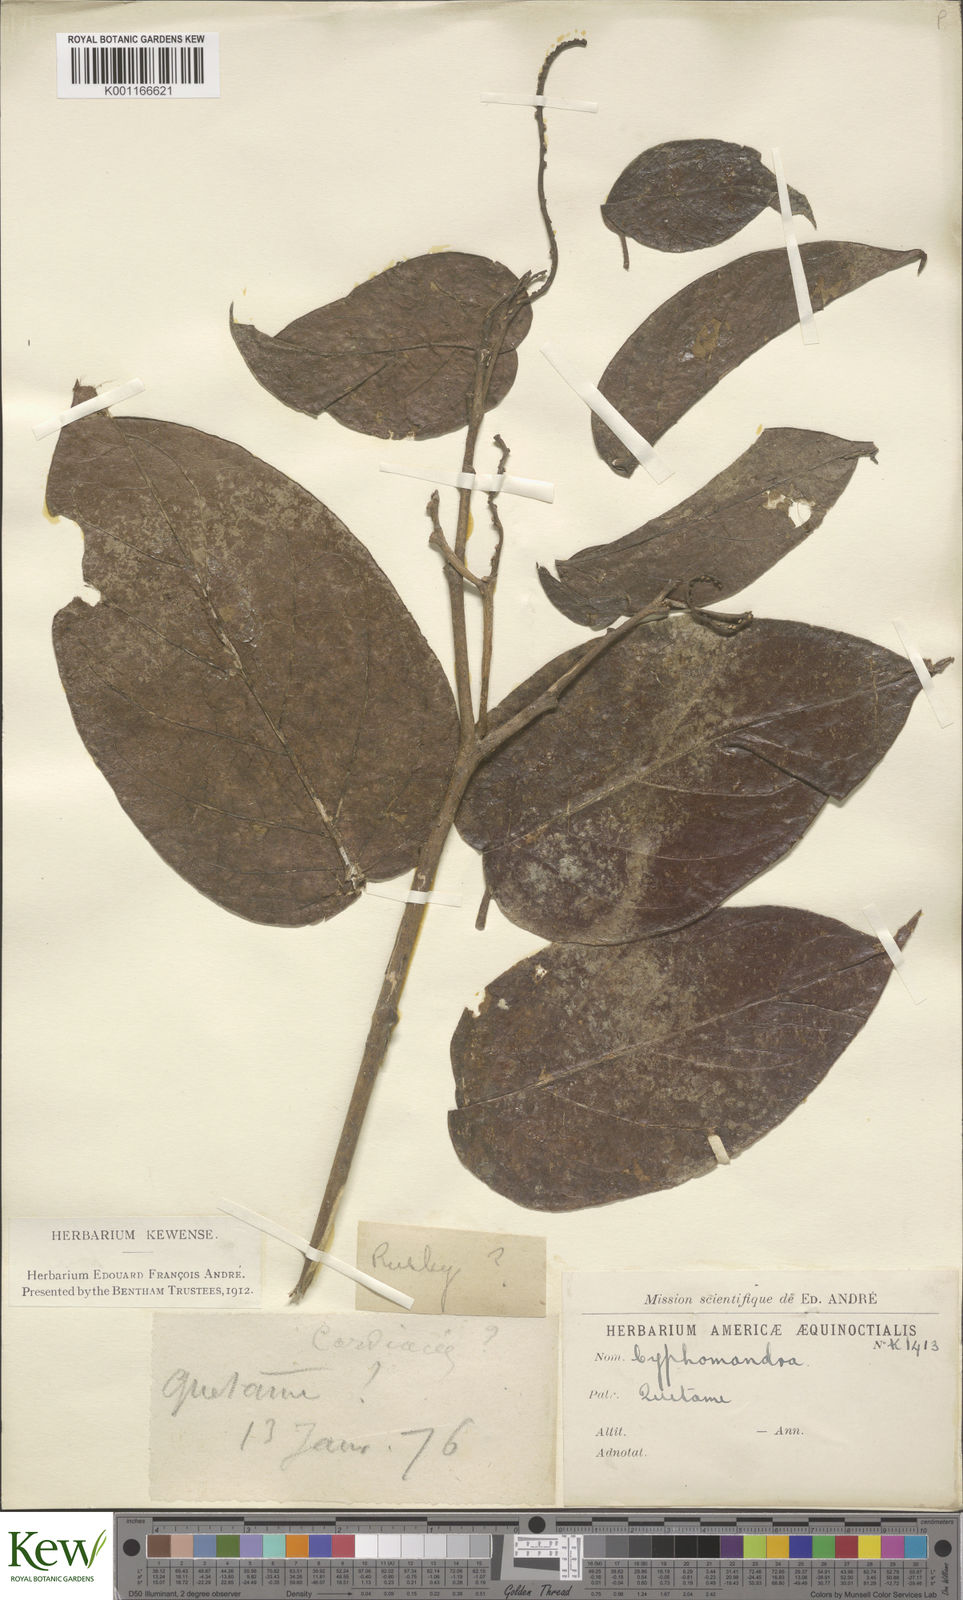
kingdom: Plantae
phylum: Tracheophyta
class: Magnoliopsida
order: Solanales
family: Solanaceae
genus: Solanum
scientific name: Solanum
